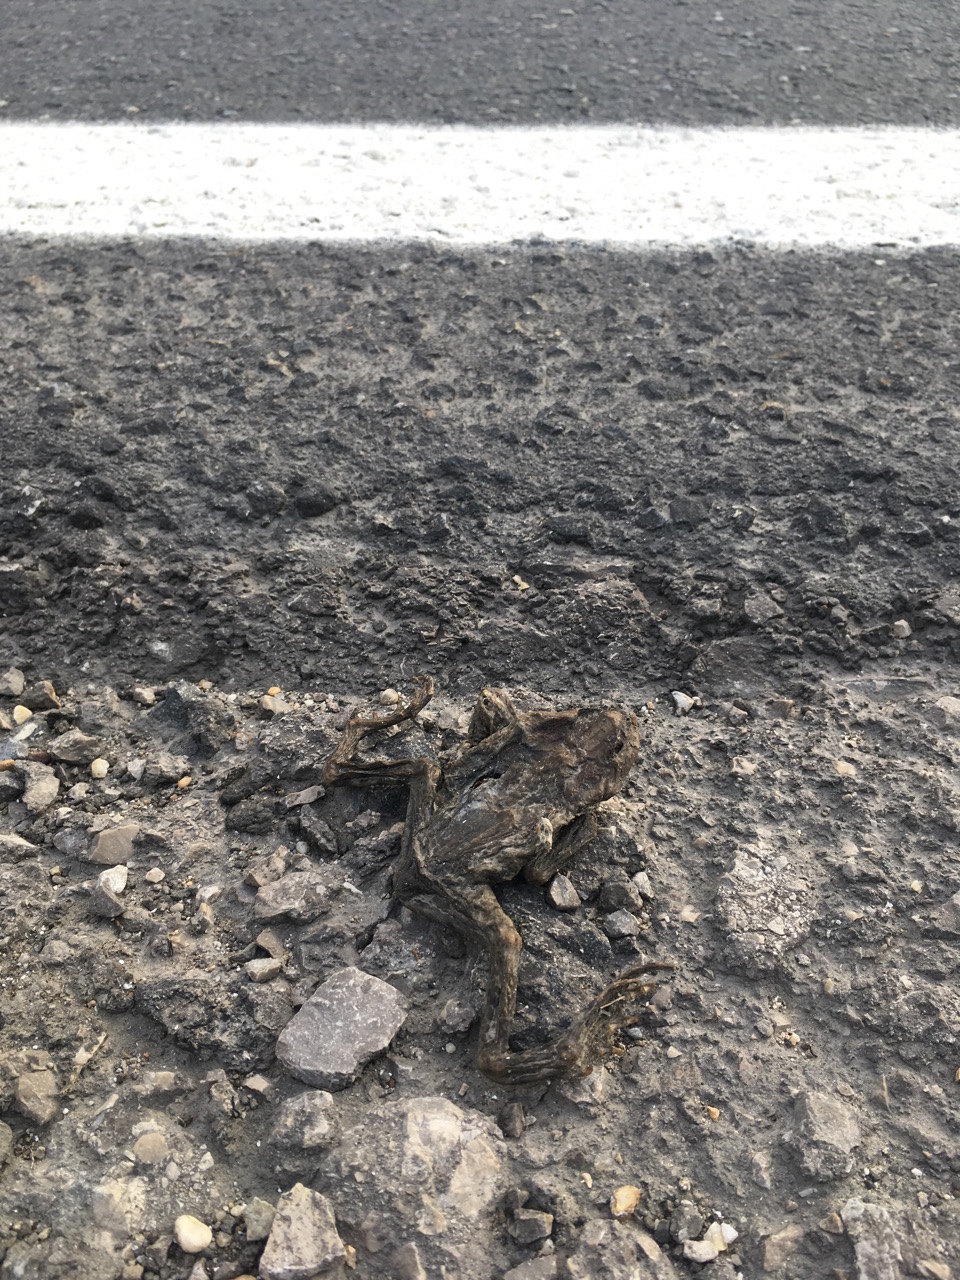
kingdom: Animalia
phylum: Chordata
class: Amphibia
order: Anura
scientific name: Anura
